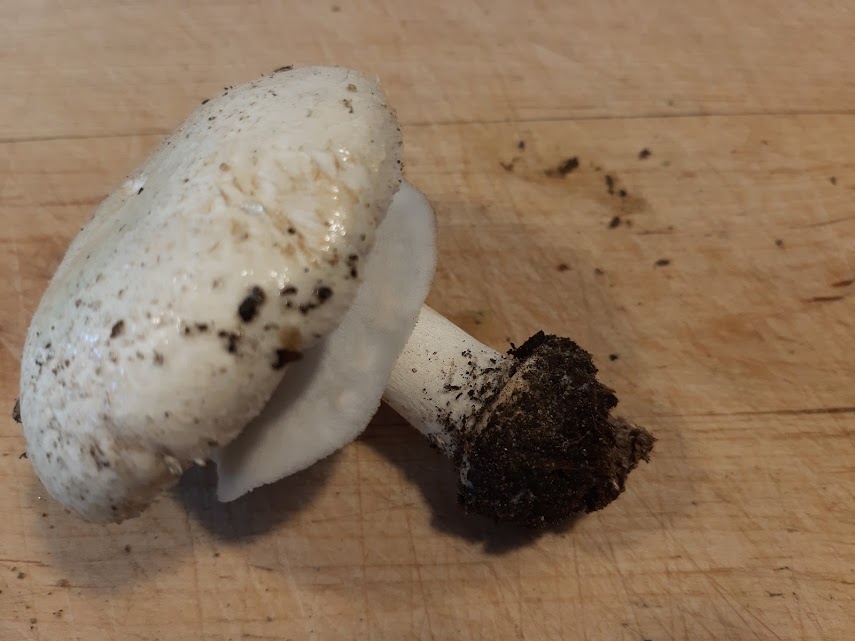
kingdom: Fungi
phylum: Basidiomycota
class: Agaricomycetes
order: Agaricales
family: Agaricaceae
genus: Agaricus
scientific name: Agaricus arvensis
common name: ager-champignon
